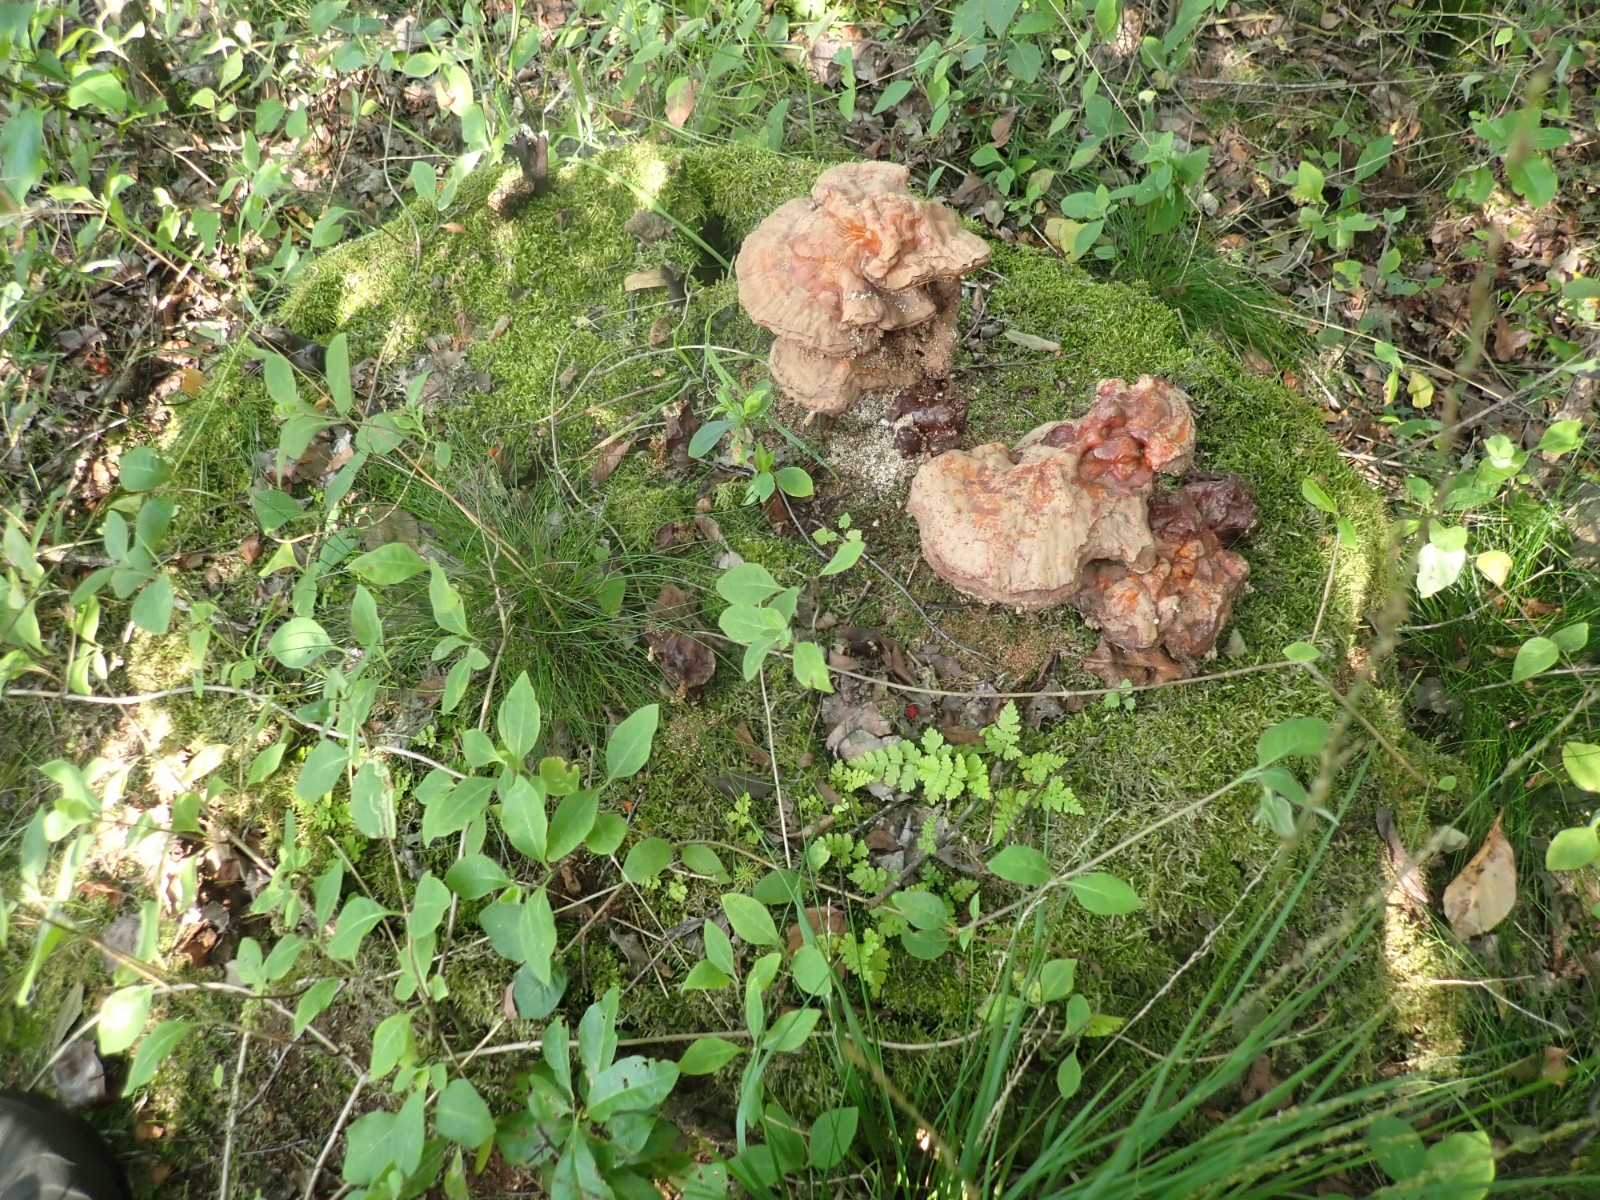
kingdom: Fungi
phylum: Basidiomycota
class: Agaricomycetes
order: Polyporales
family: Polyporaceae
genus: Ganoderma
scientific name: Ganoderma lucidum
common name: skinnende lakporesvamp
